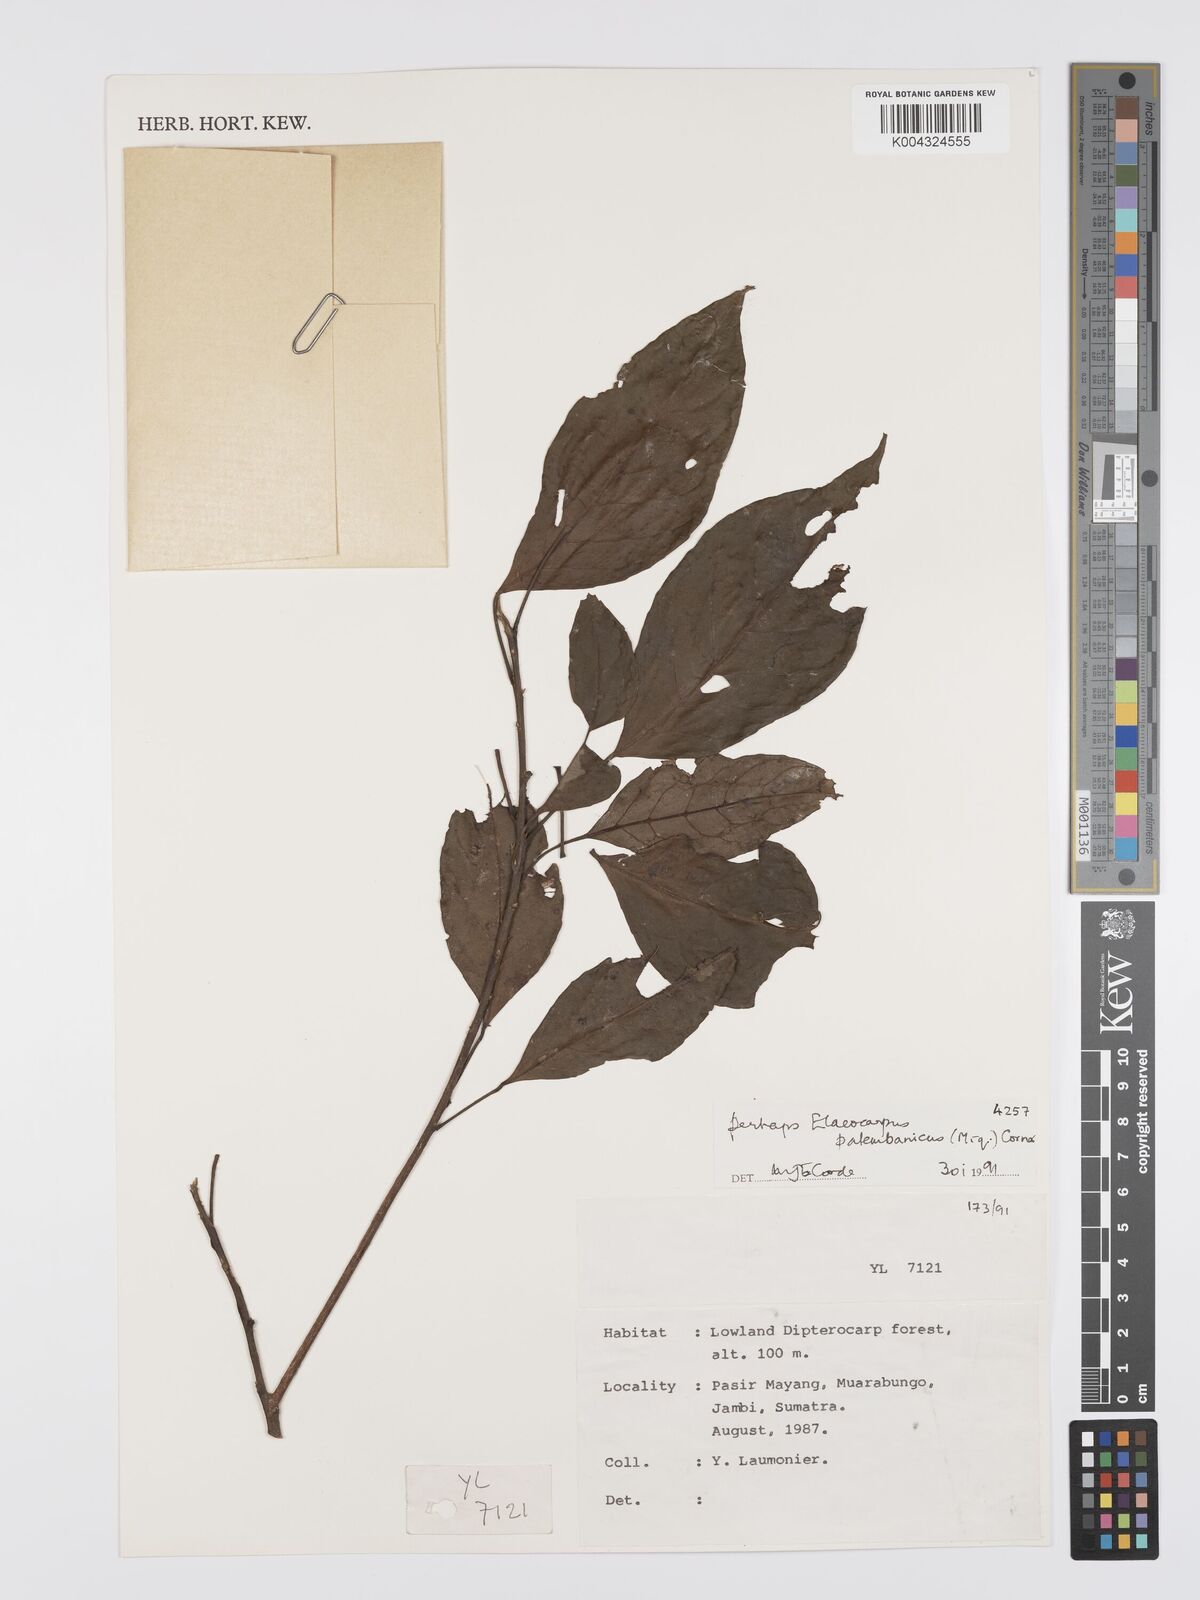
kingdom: Plantae
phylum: Tracheophyta
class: Magnoliopsida
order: Oxalidales
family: Elaeocarpaceae
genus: Elaeocarpus
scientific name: Elaeocarpus palembanicus
